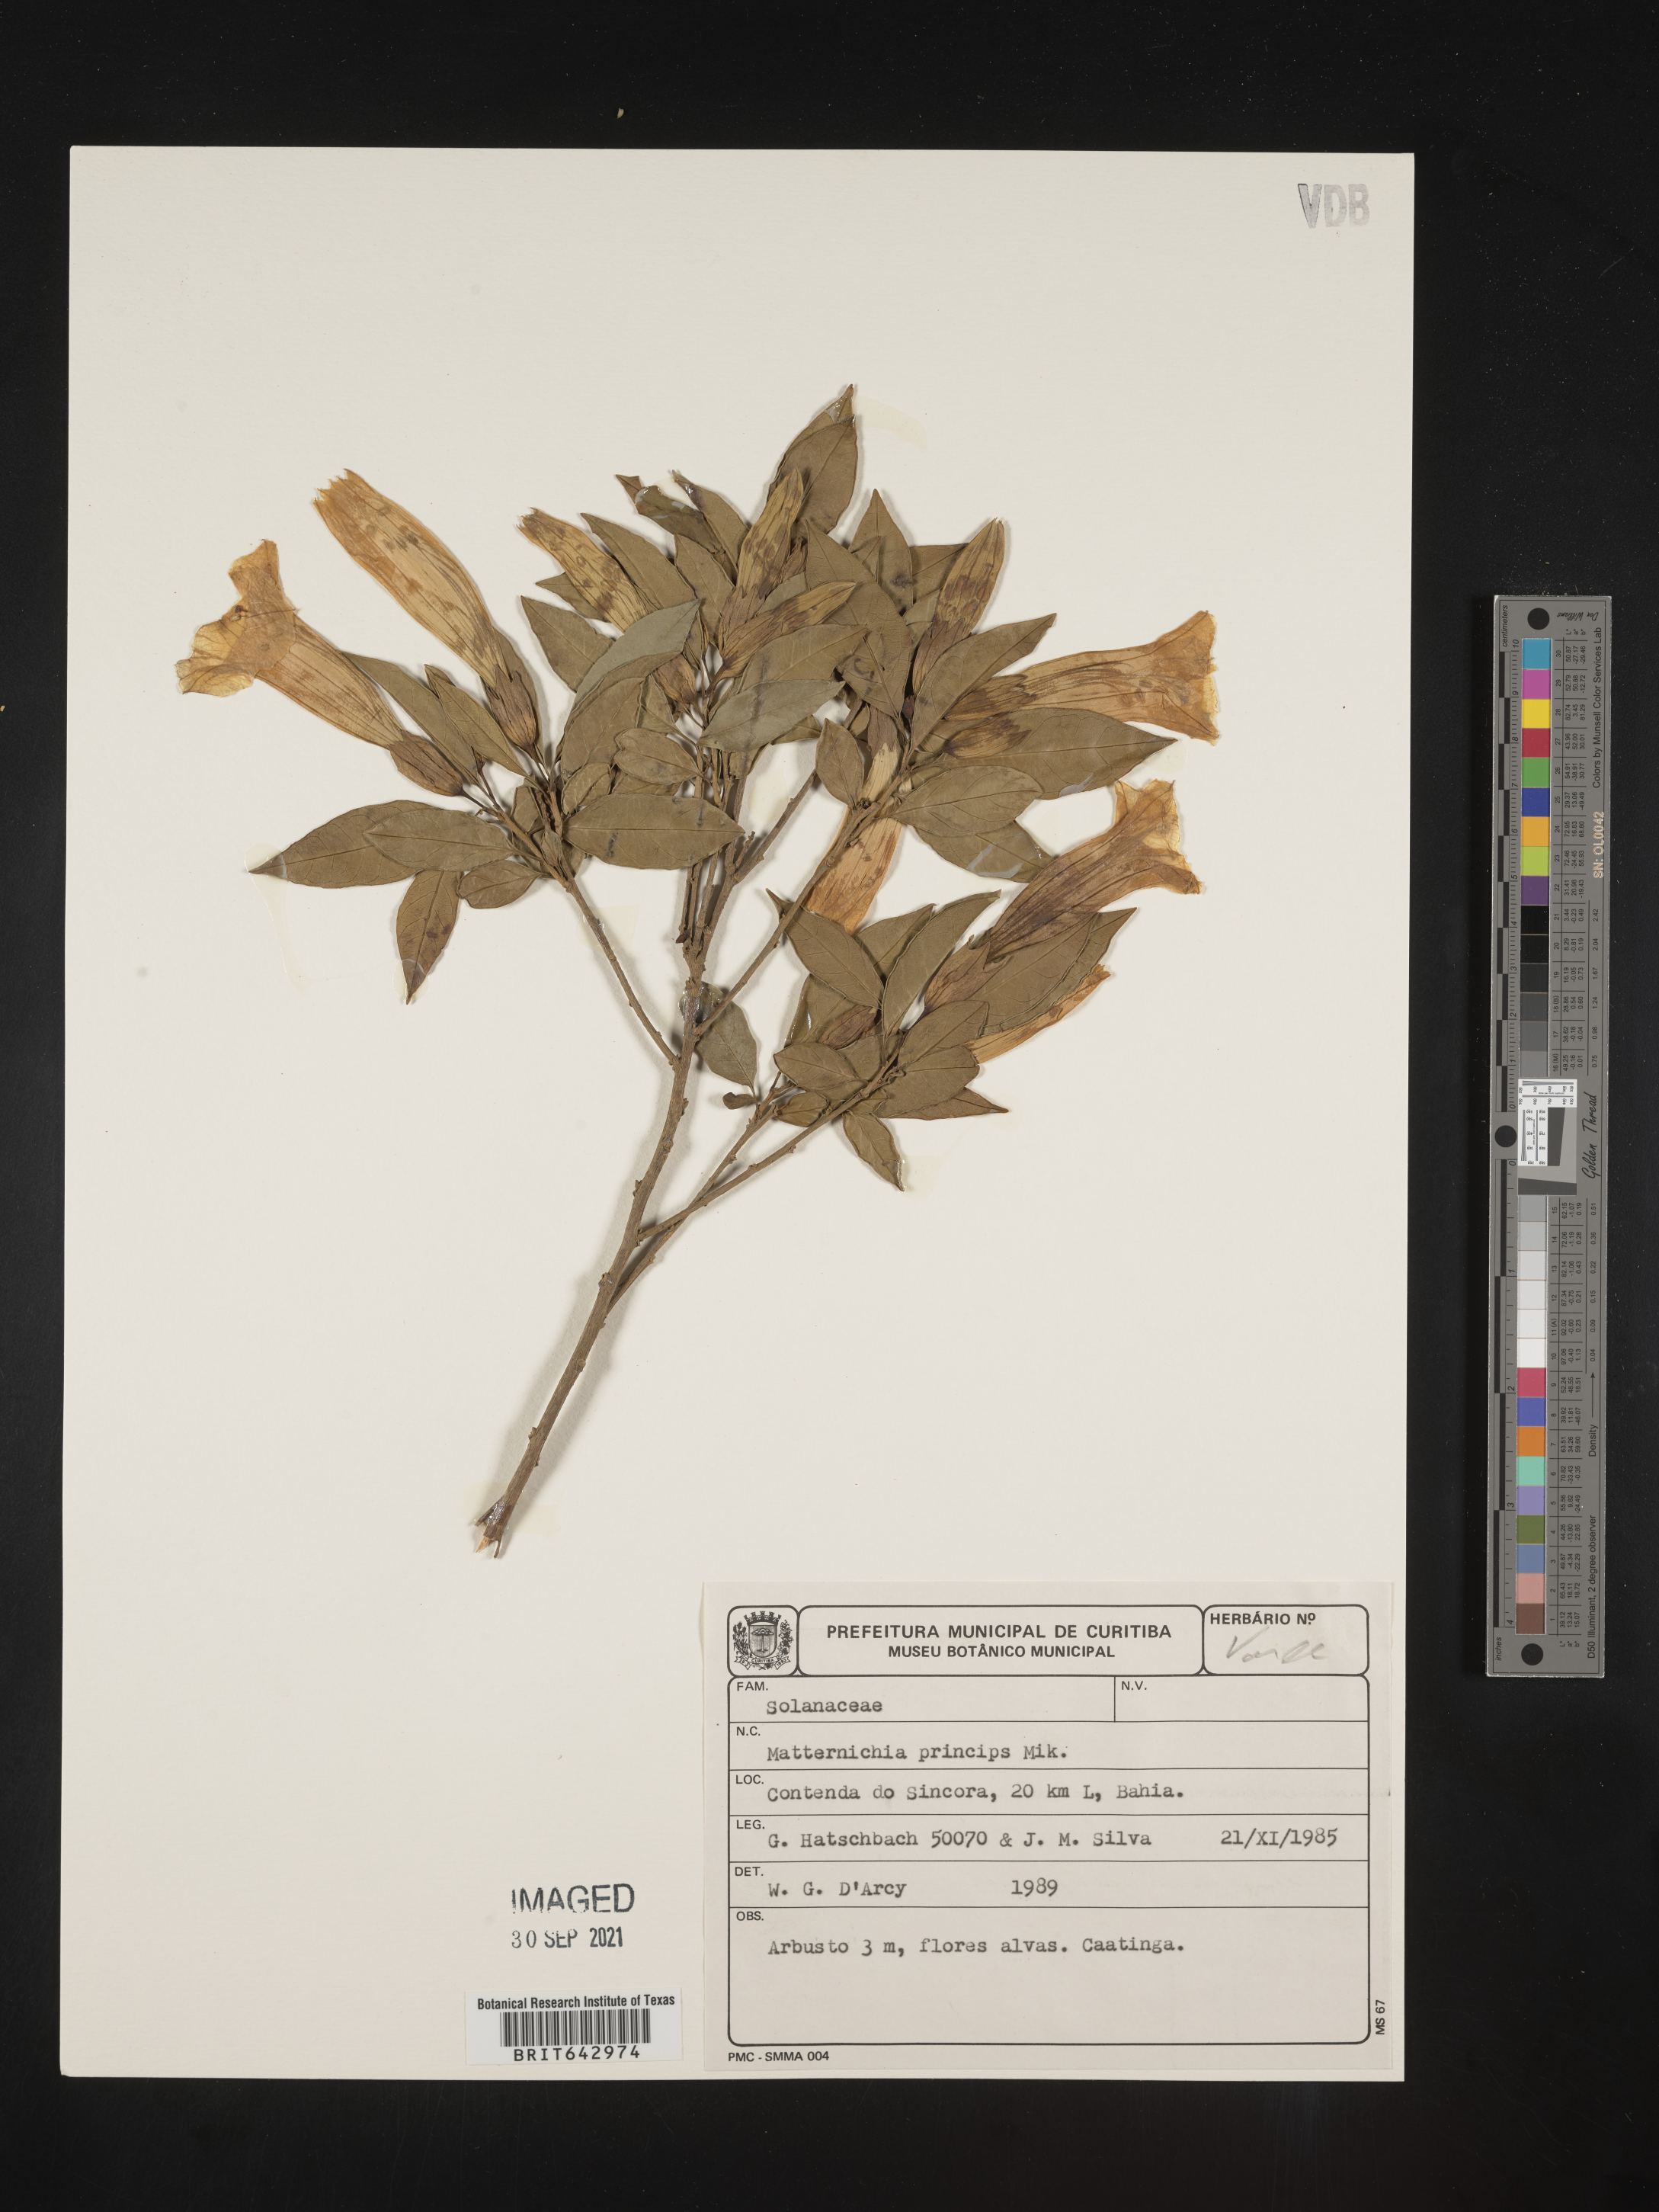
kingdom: Plantae
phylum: Tracheophyta
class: Magnoliopsida
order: Solanales
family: Solanaceae
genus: Metternichia
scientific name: Metternichia
